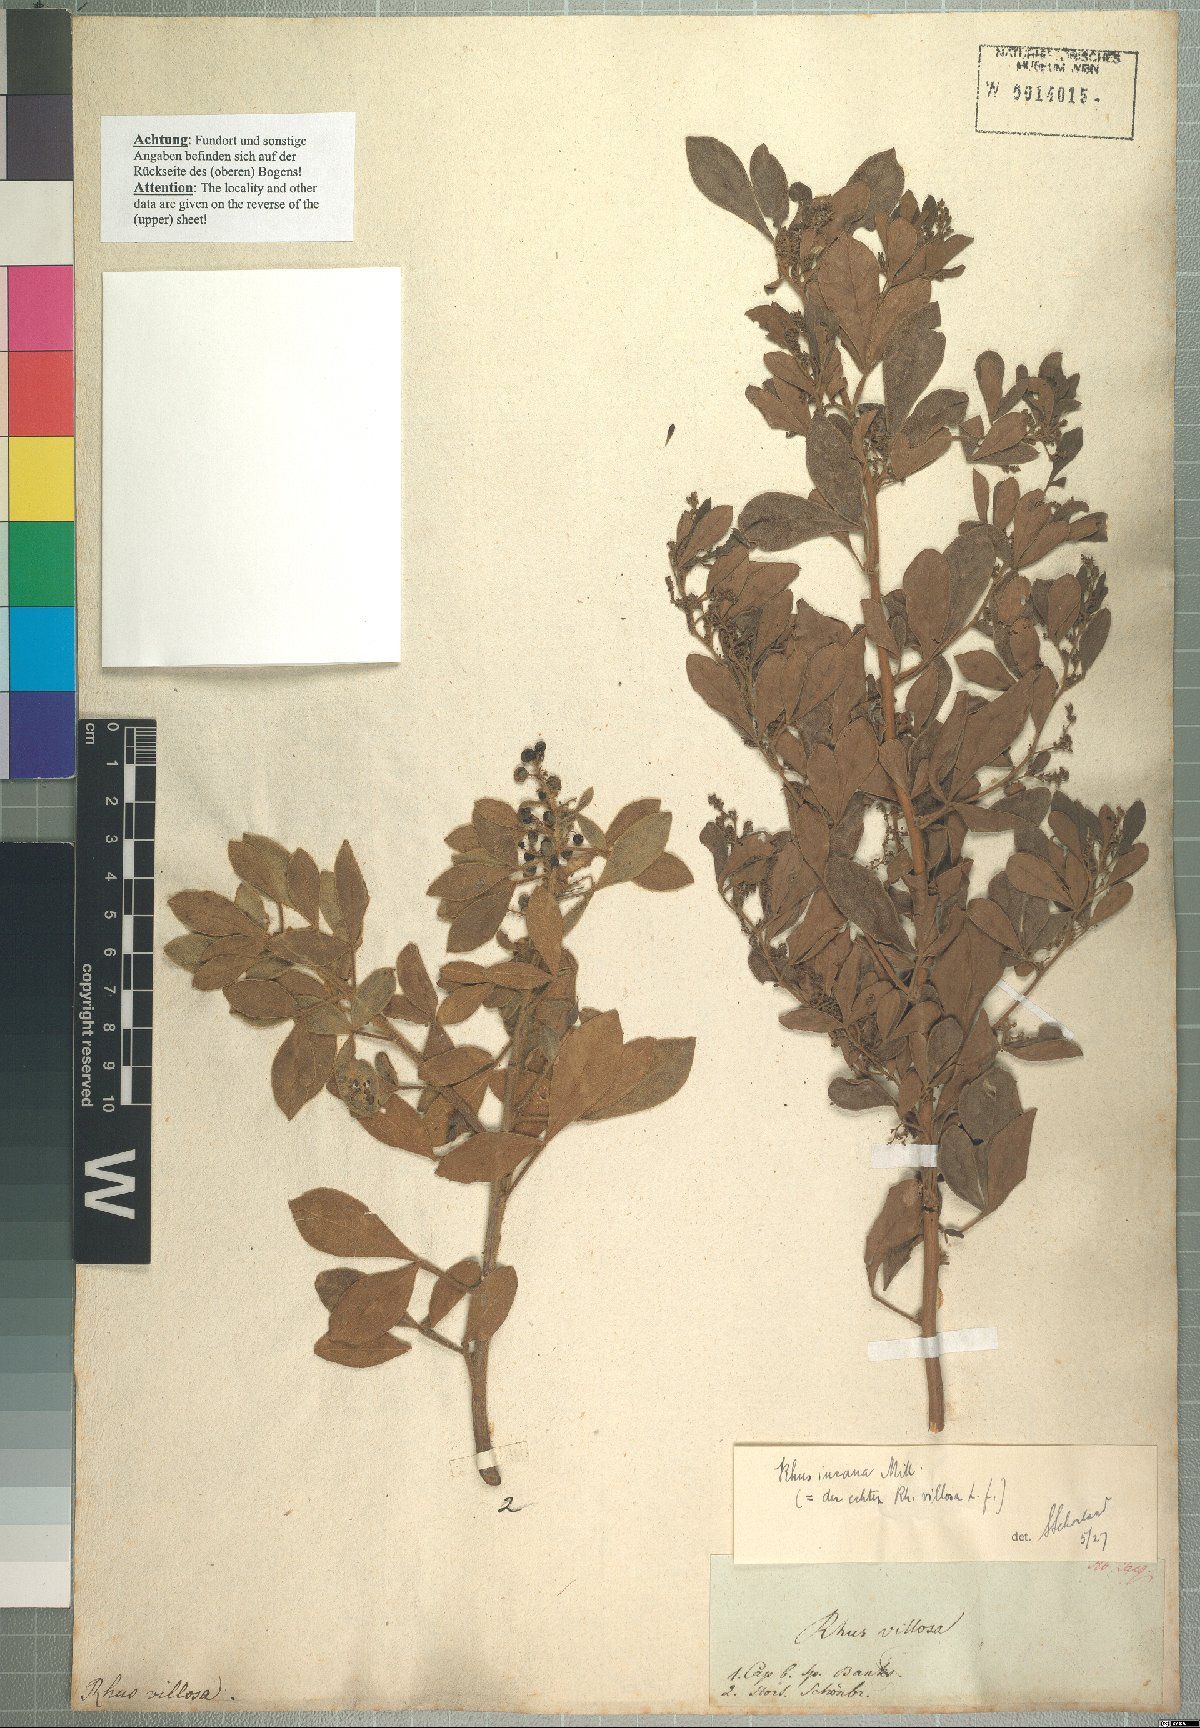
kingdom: Plantae
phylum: Tracheophyta
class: Magnoliopsida
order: Sapindales
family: Anacardiaceae
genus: Searsia
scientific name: Searsia laevigata
